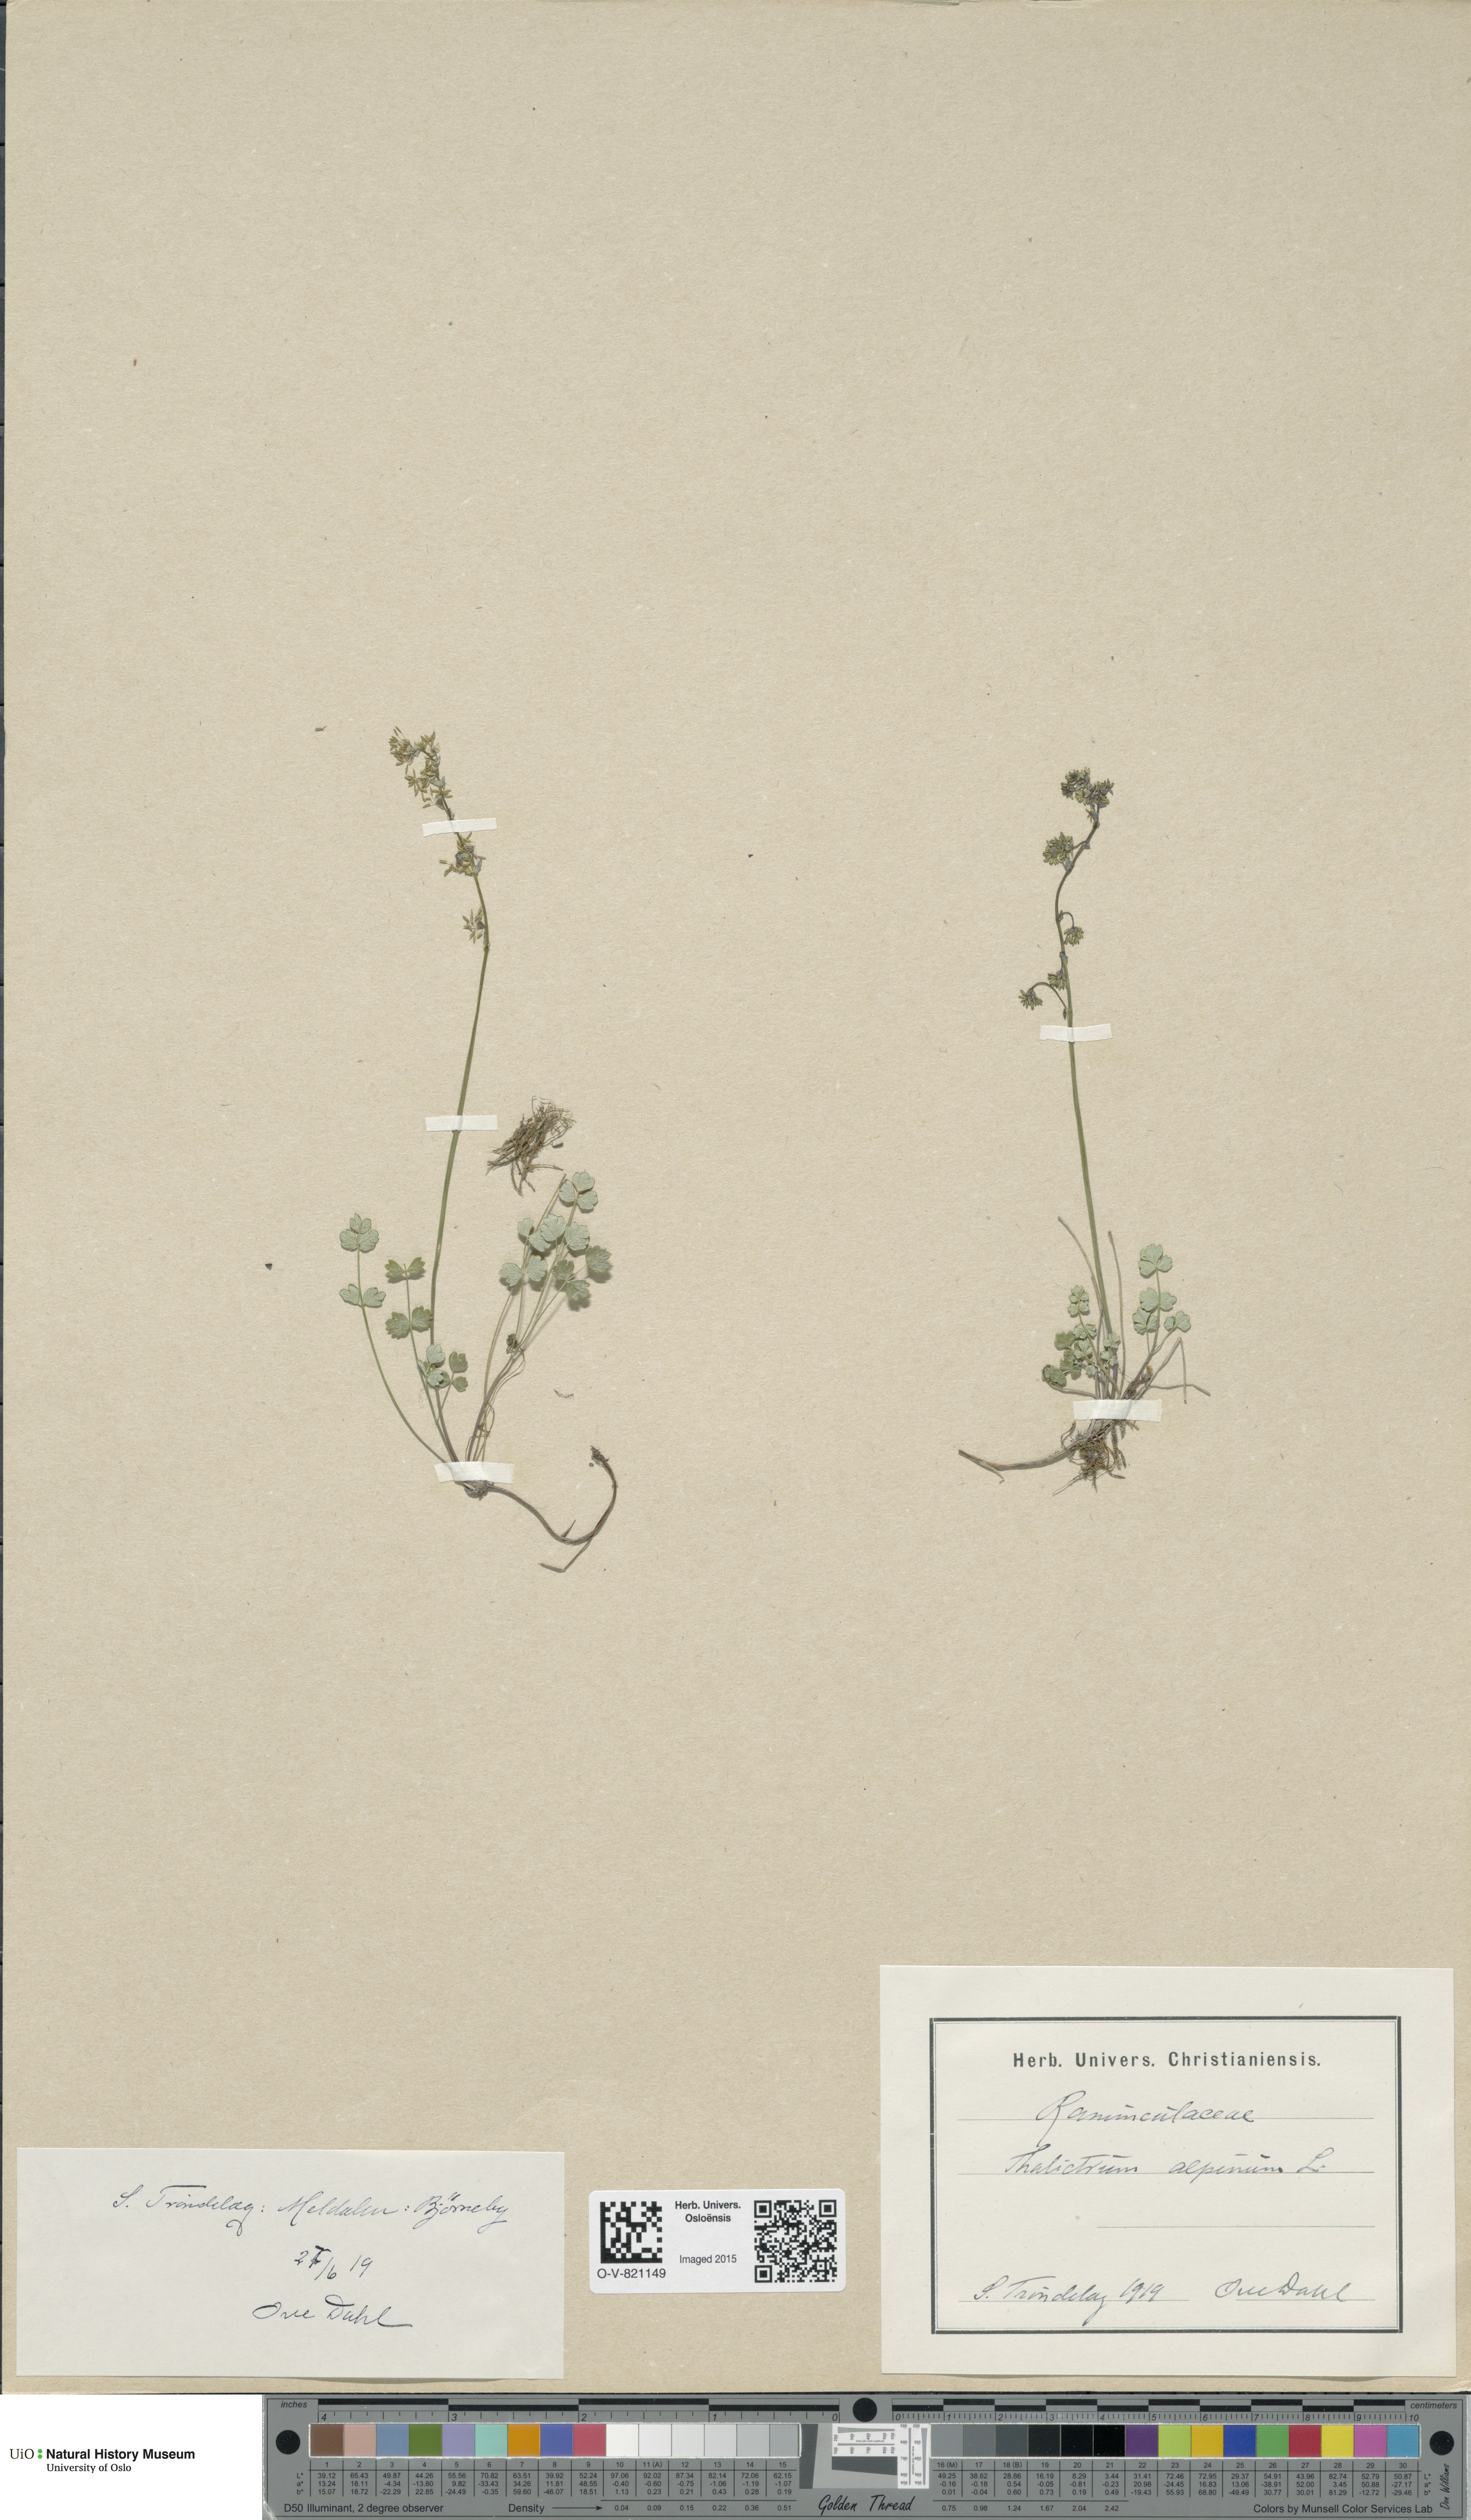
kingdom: Plantae
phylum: Tracheophyta
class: Magnoliopsida
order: Ranunculales
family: Ranunculaceae
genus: Thalictrum
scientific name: Thalictrum alpinum
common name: Alpine meadow-rue
